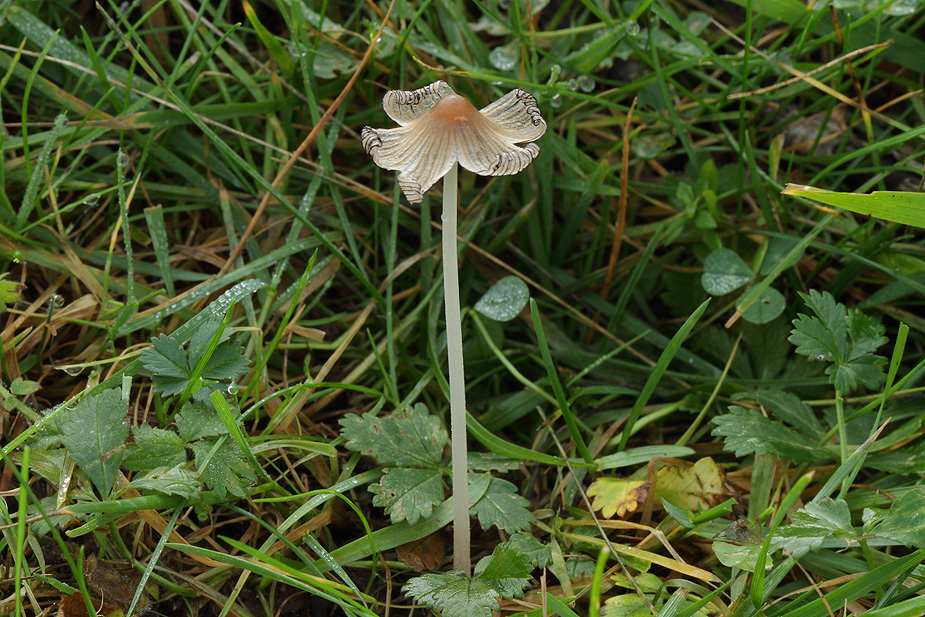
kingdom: Fungi
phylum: Basidiomycota
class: Agaricomycetes
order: Agaricales
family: Psathyrellaceae
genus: Tulosesus
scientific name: Tulosesus sclerocystidiosus
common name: brunhåret blækhat
